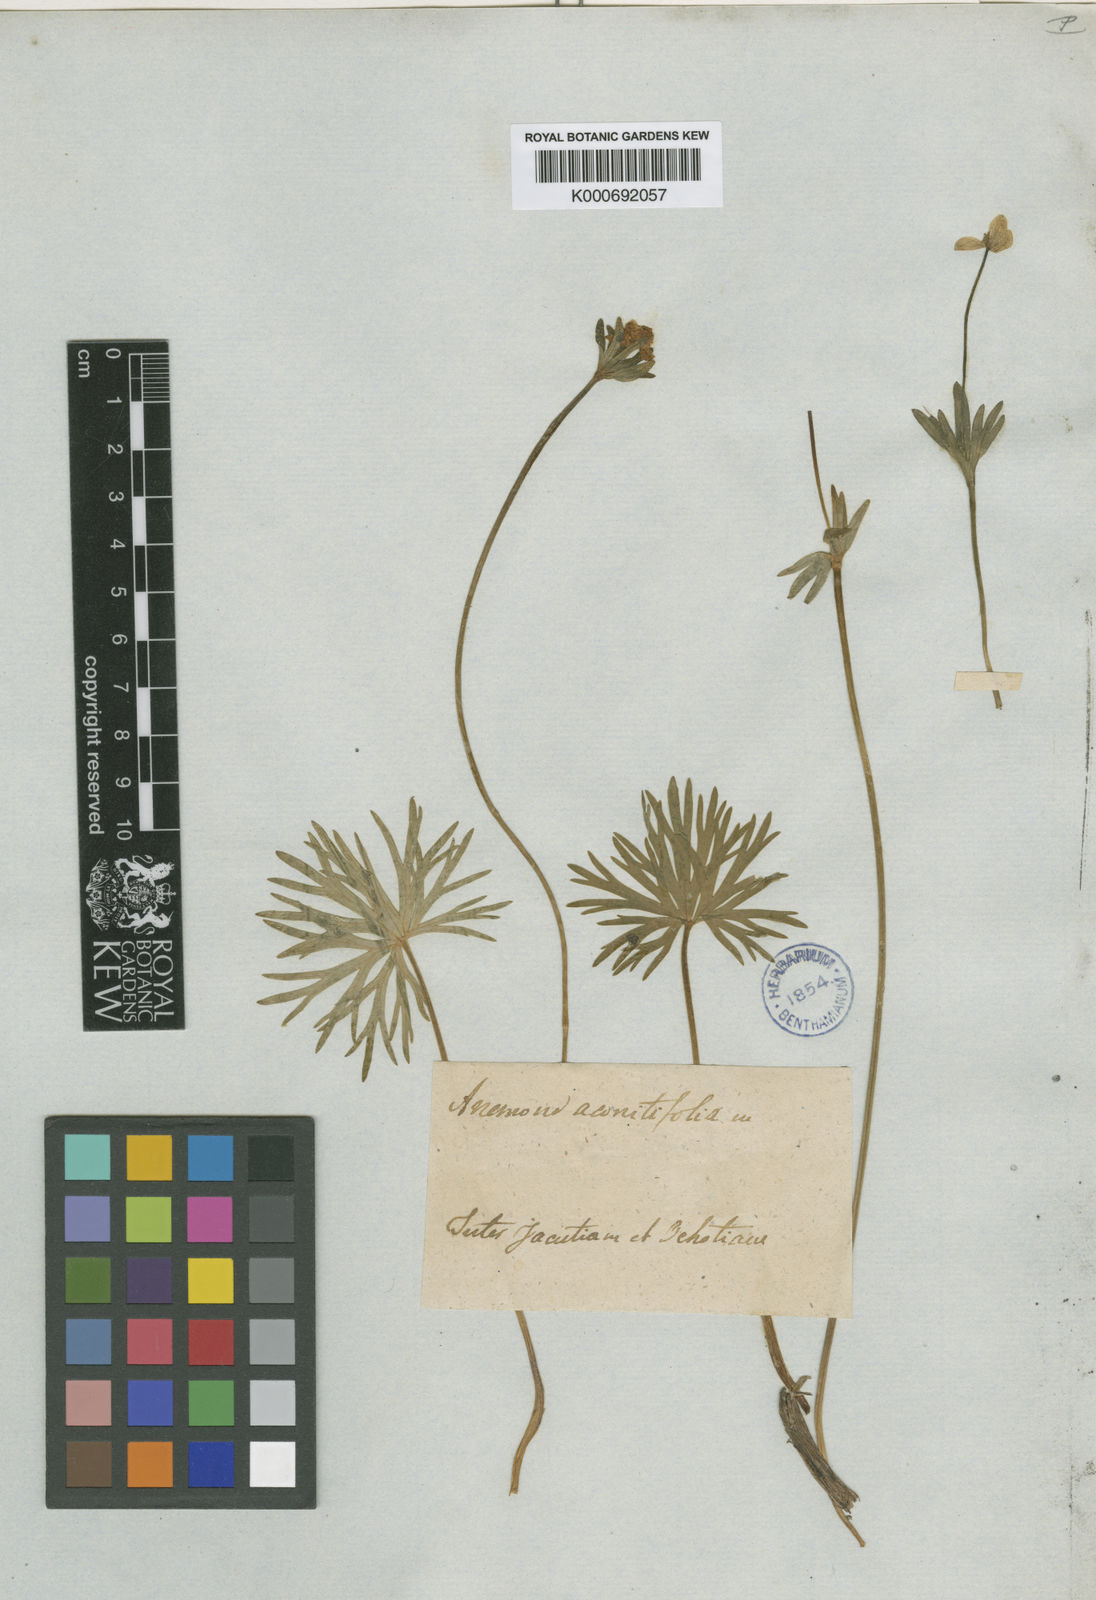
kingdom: Plantae
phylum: Tracheophyta
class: Magnoliopsida
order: Ranunculales
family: Ranunculaceae
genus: Anemone
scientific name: Anemone
